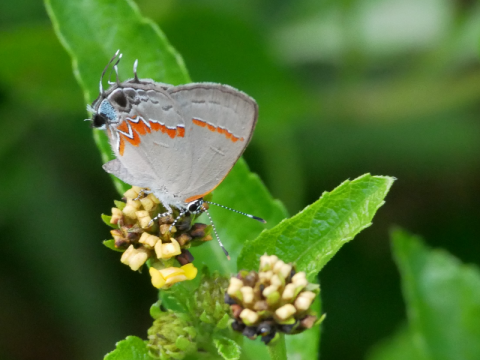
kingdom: Animalia
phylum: Arthropoda
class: Insecta
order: Lepidoptera
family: Lycaenidae
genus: Calycopis
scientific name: Calycopis cecrops
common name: Red-banded Hairstreak
